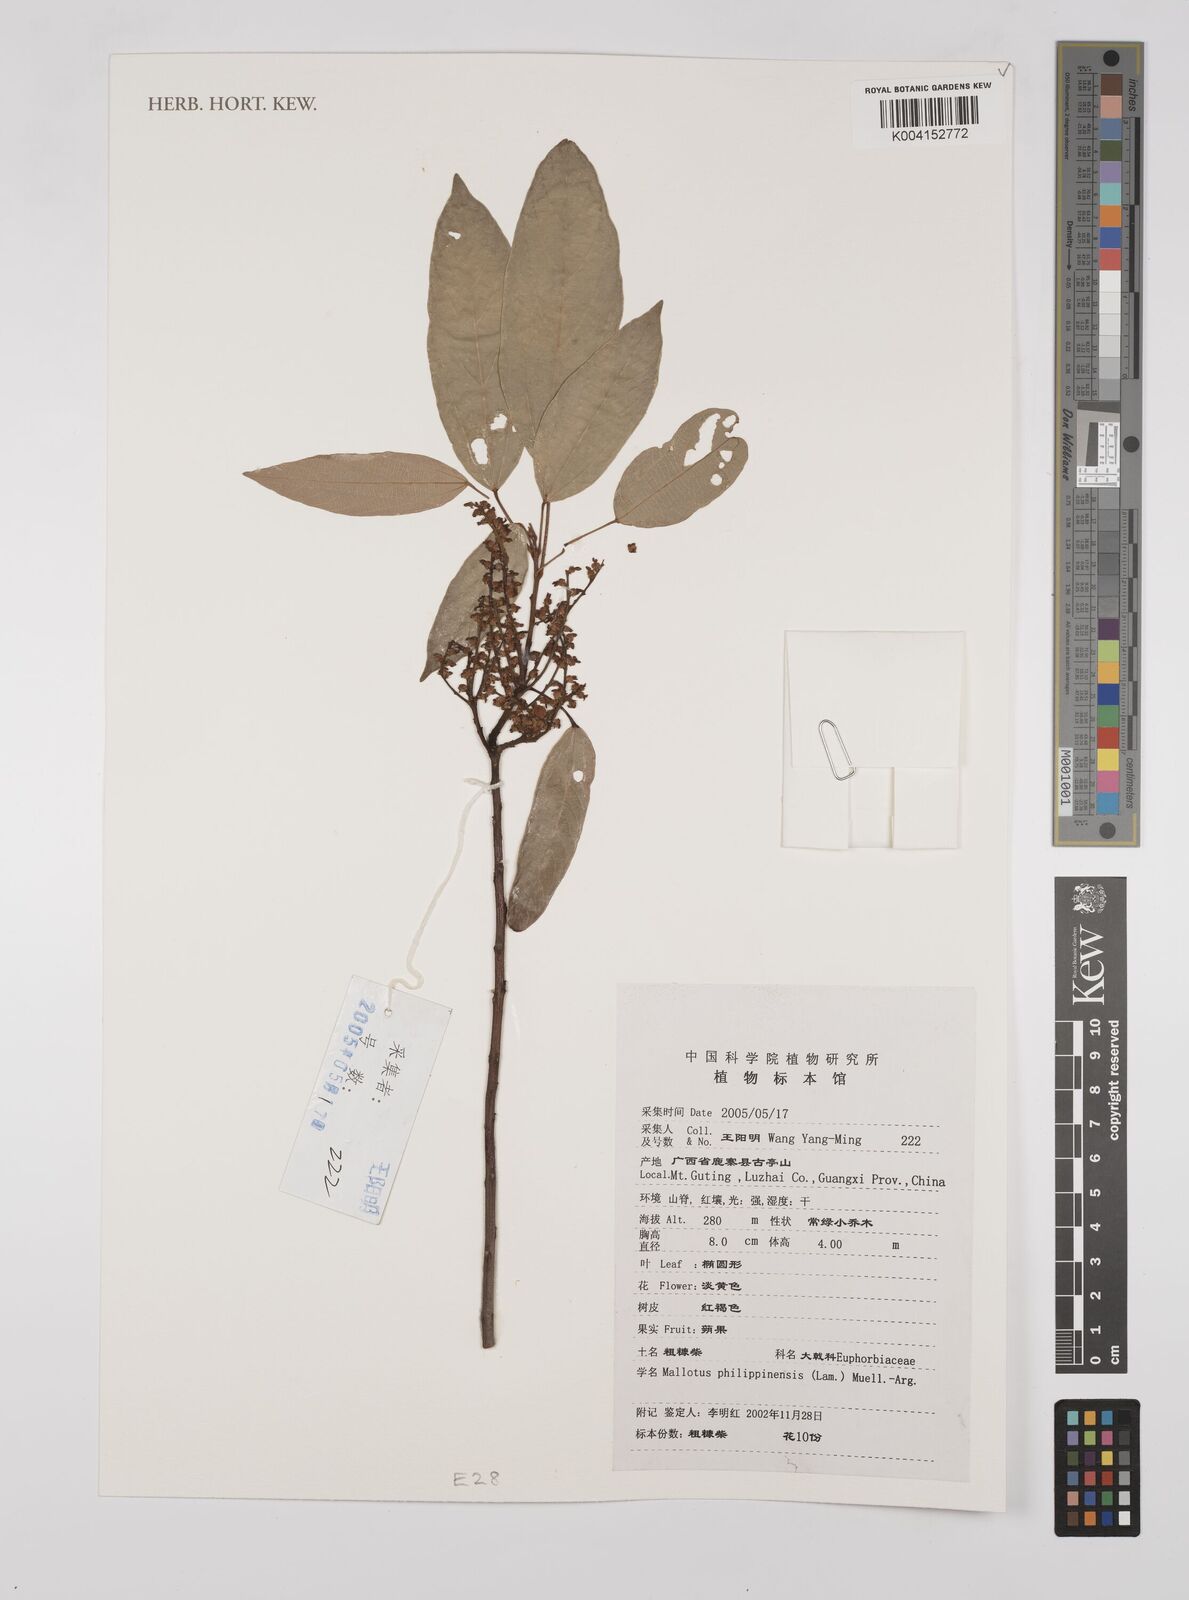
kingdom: Plantae
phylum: Tracheophyta
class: Magnoliopsida
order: Malpighiales
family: Euphorbiaceae
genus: Mallotus
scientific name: Mallotus philippensis
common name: Kamala tree
